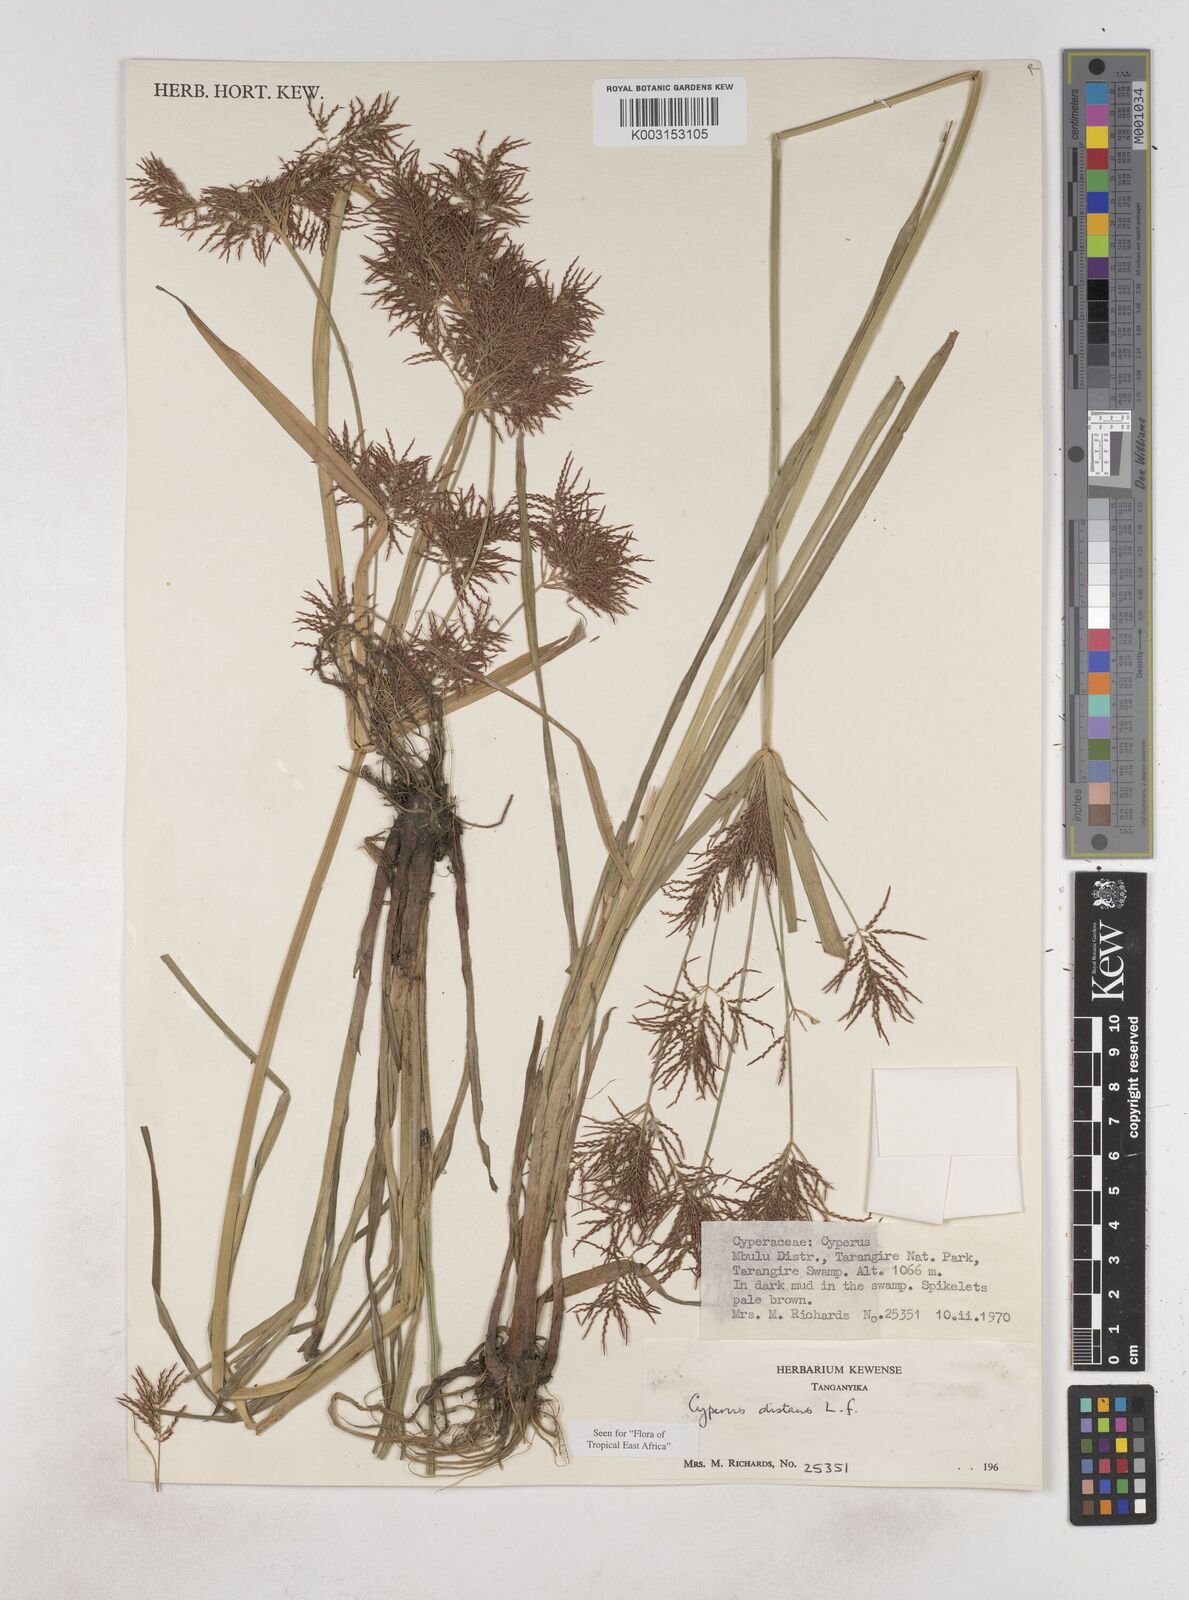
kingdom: Plantae
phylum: Tracheophyta
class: Liliopsida
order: Poales
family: Cyperaceae
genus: Cyperus
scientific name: Cyperus distans
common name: Slender cyperus
